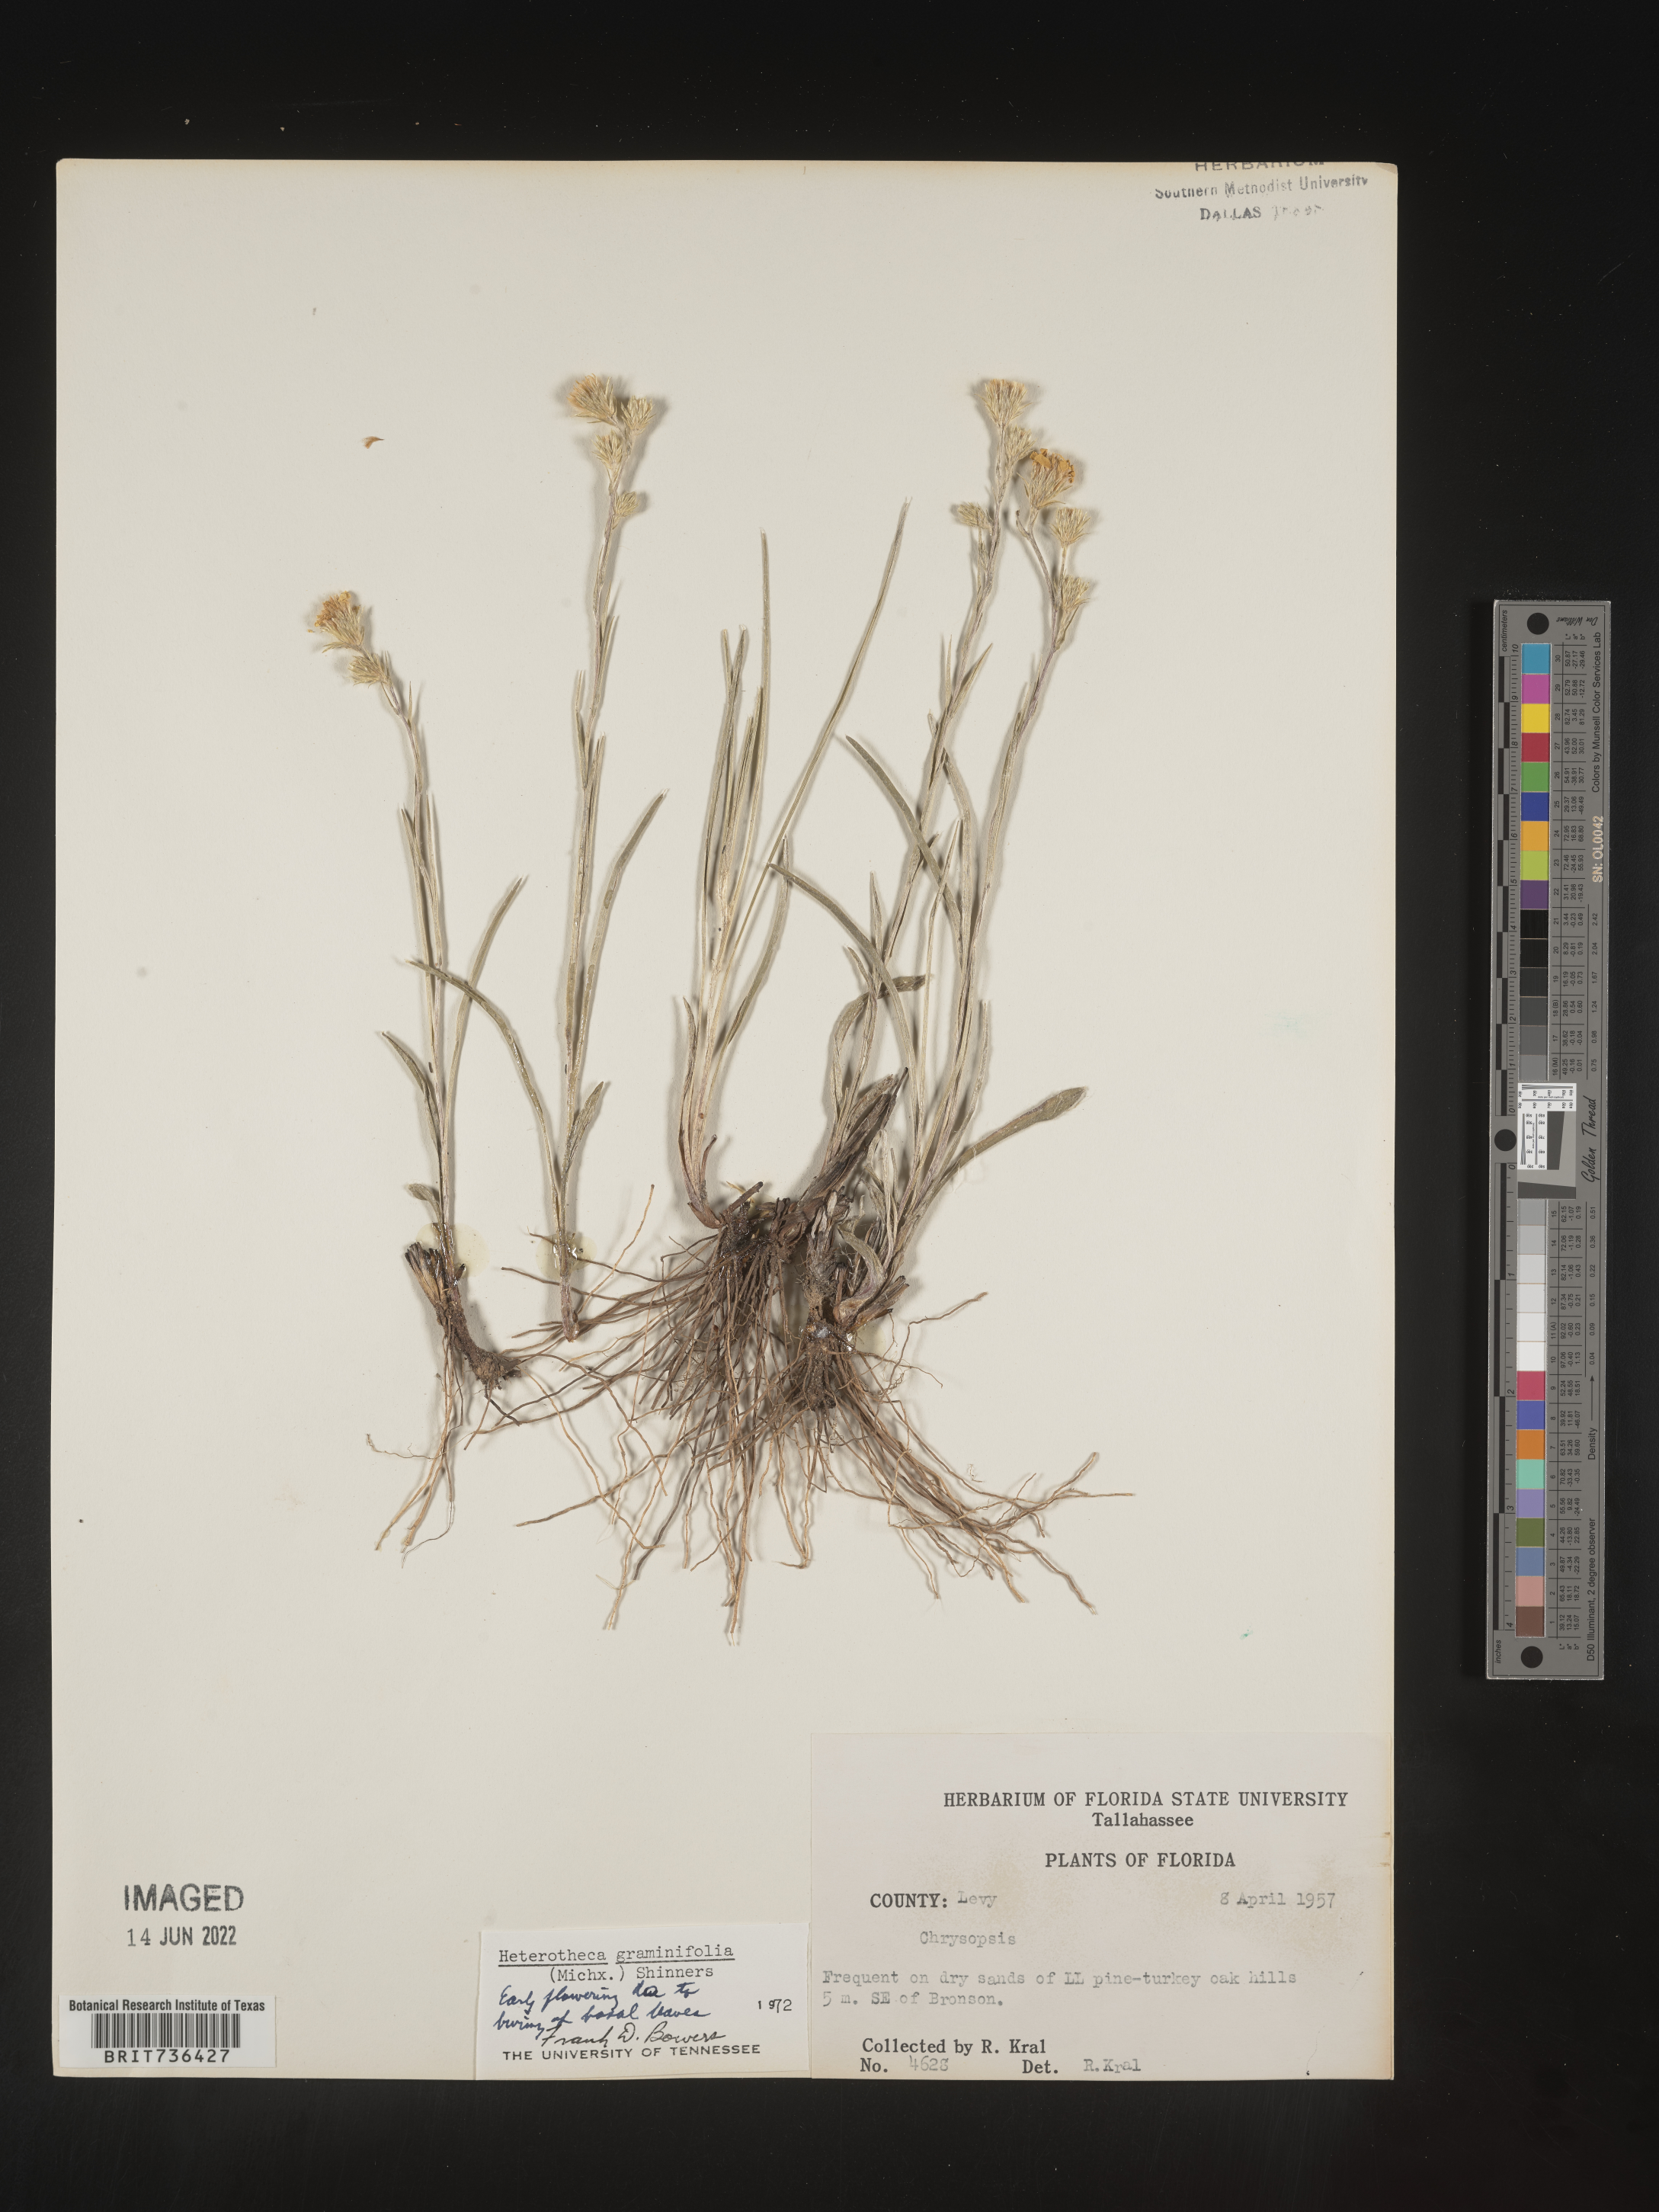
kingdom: Plantae
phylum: Tracheophyta
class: Magnoliopsida
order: Asterales
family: Asteraceae
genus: Pityopsis
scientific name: Pityopsis tracyi
